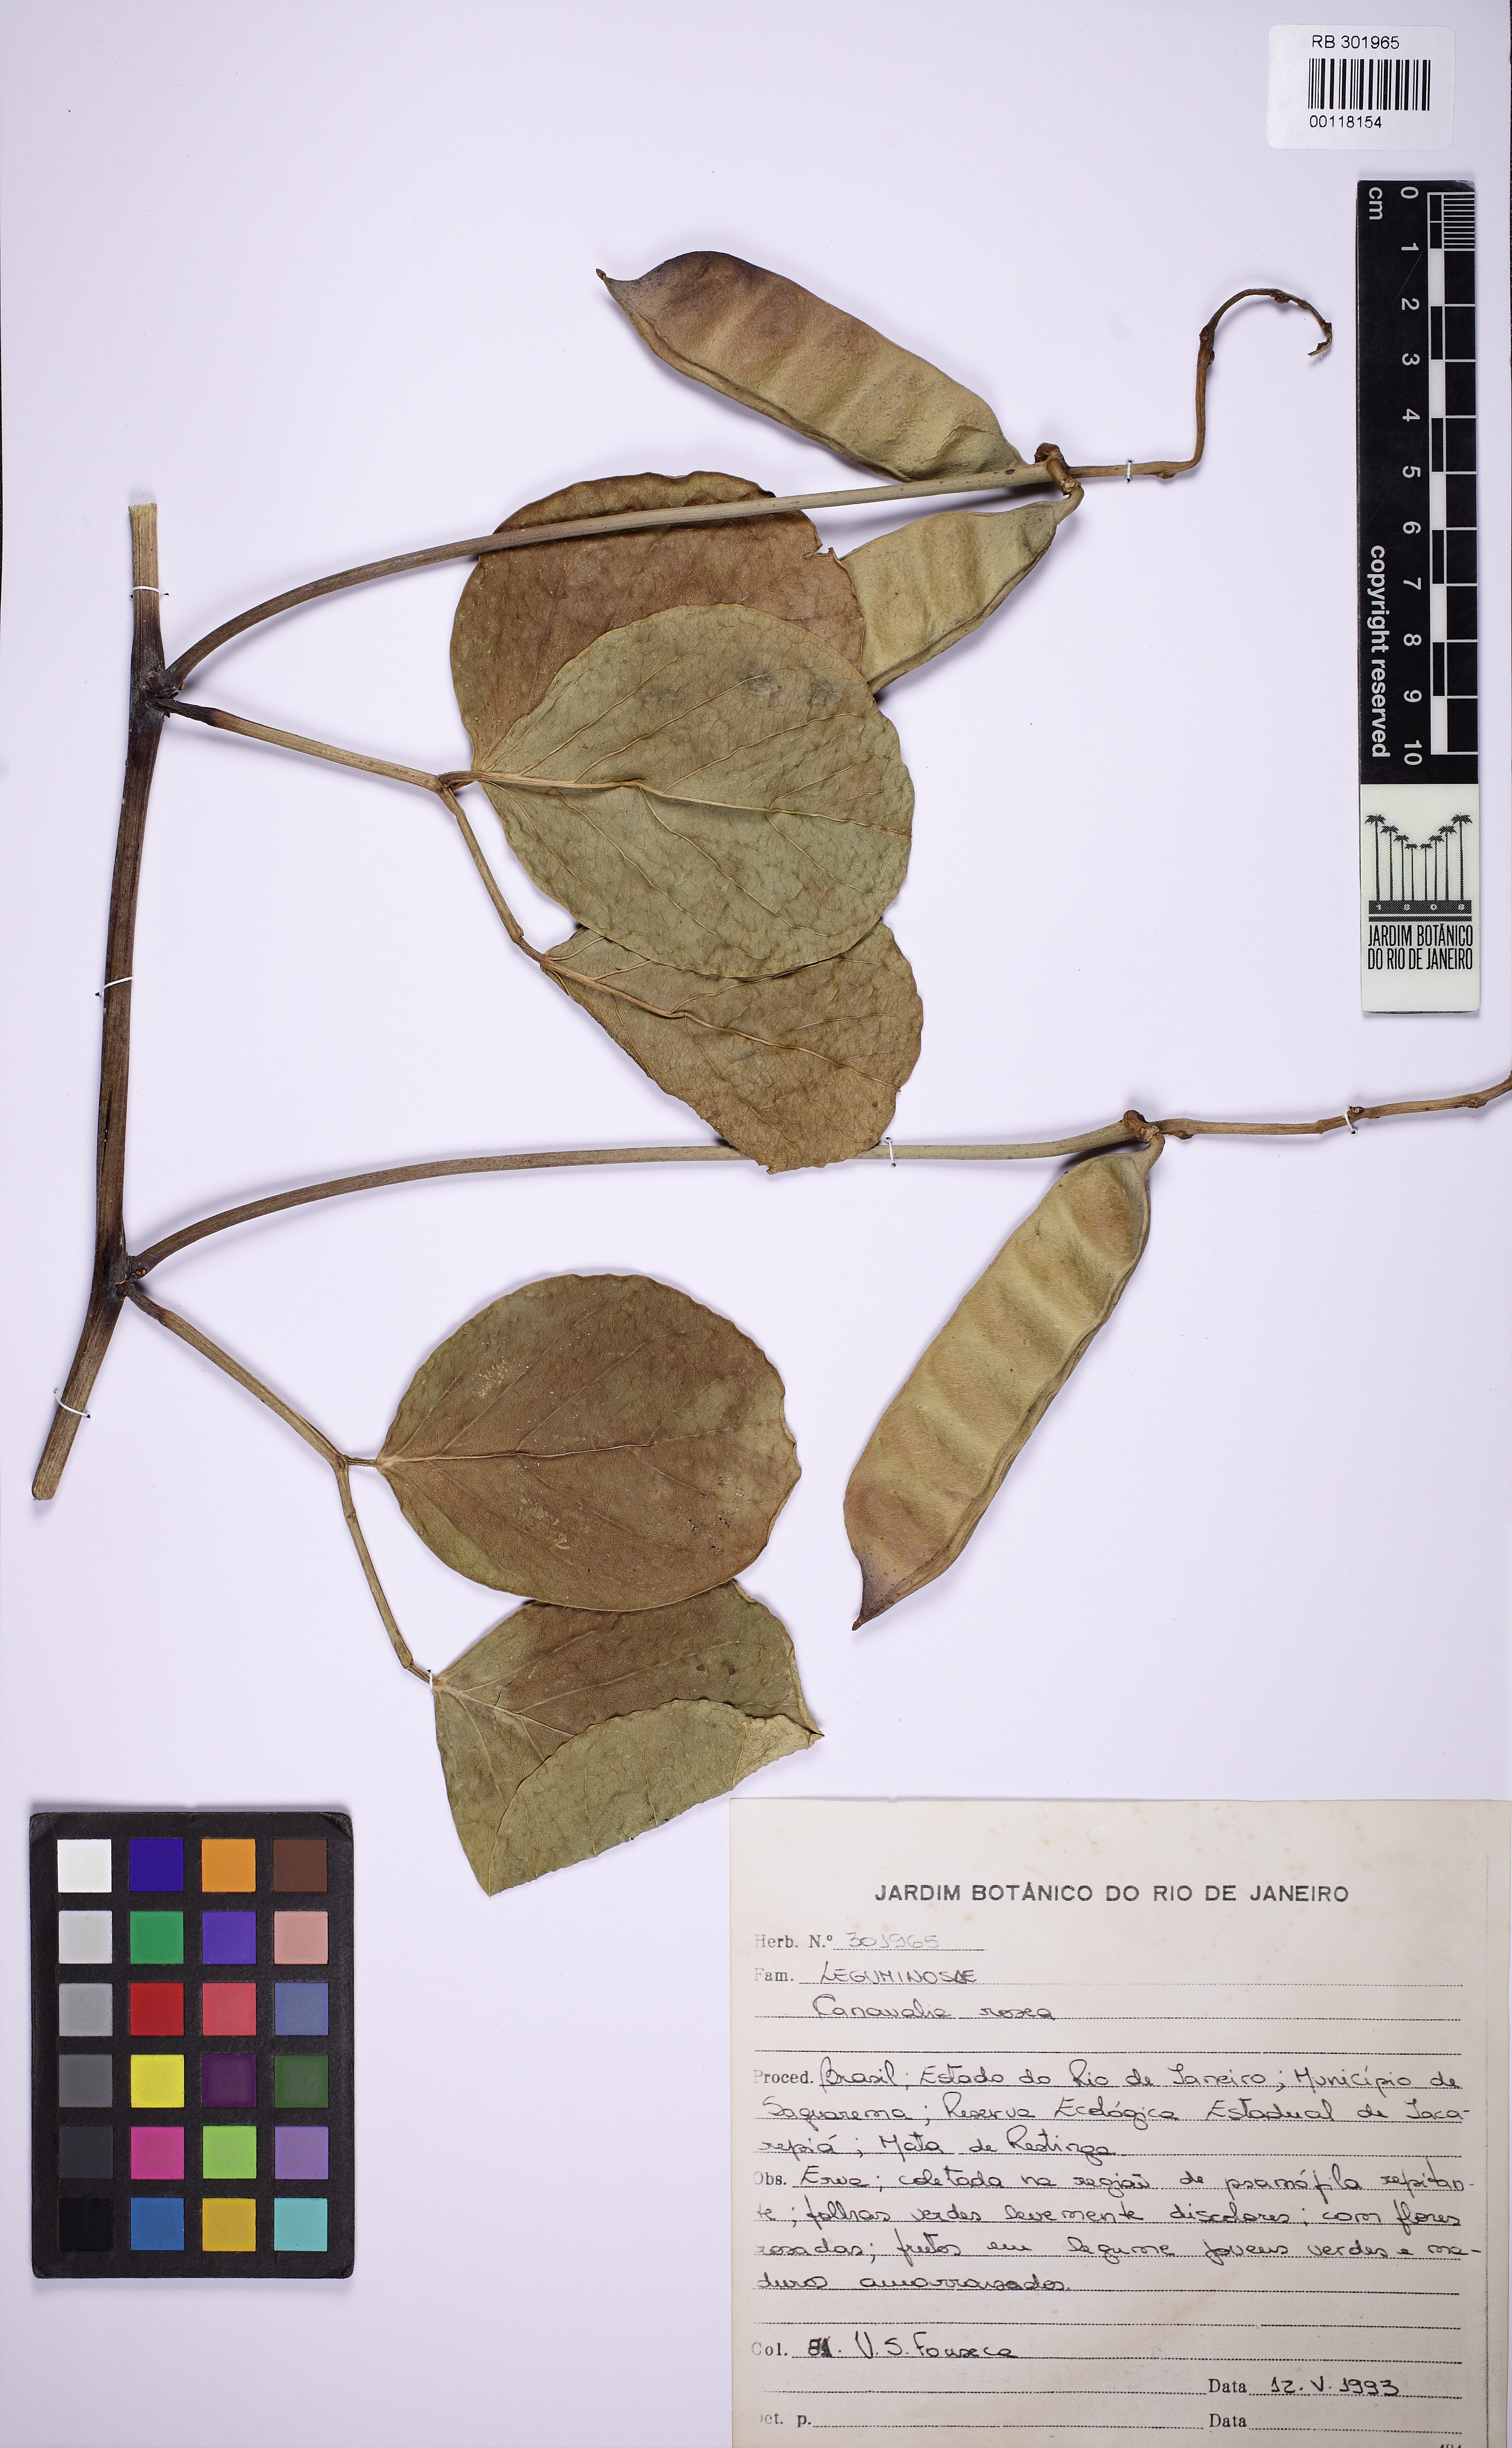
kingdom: Plantae
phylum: Tracheophyta
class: Magnoliopsida
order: Fabales
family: Fabaceae
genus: Canavalia
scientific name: Canavalia rosea
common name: Beach-bean
